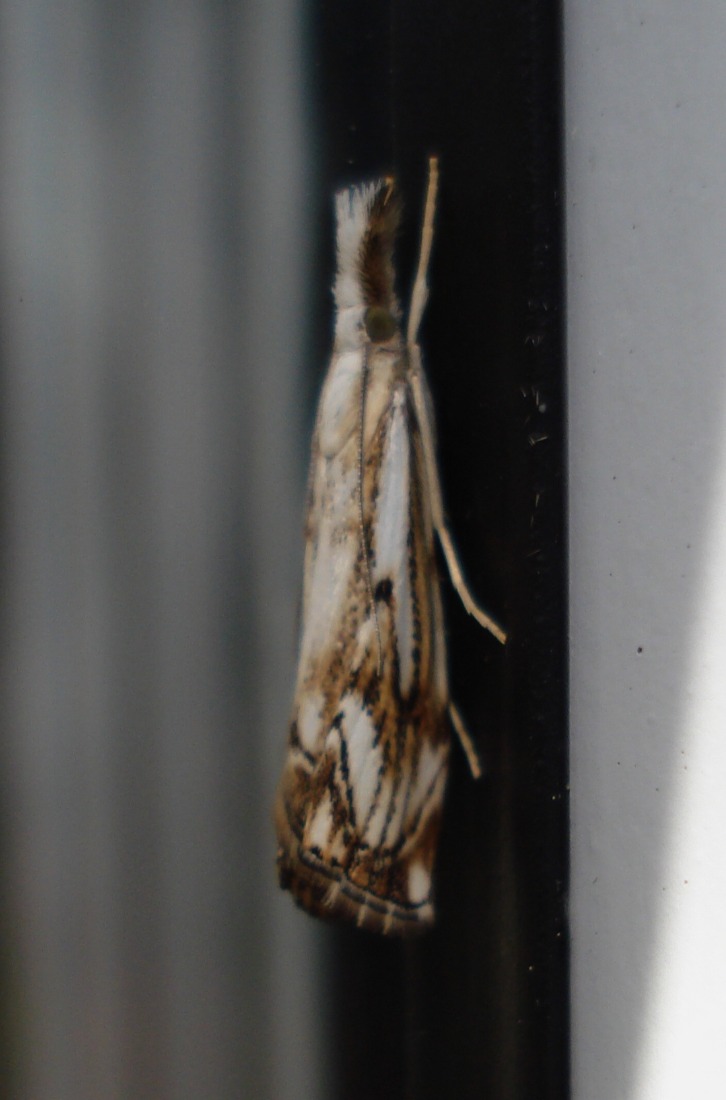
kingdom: Animalia
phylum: Arthropoda
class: Insecta
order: Lepidoptera
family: Crambidae
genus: Catoptria
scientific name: Catoptria falsella
